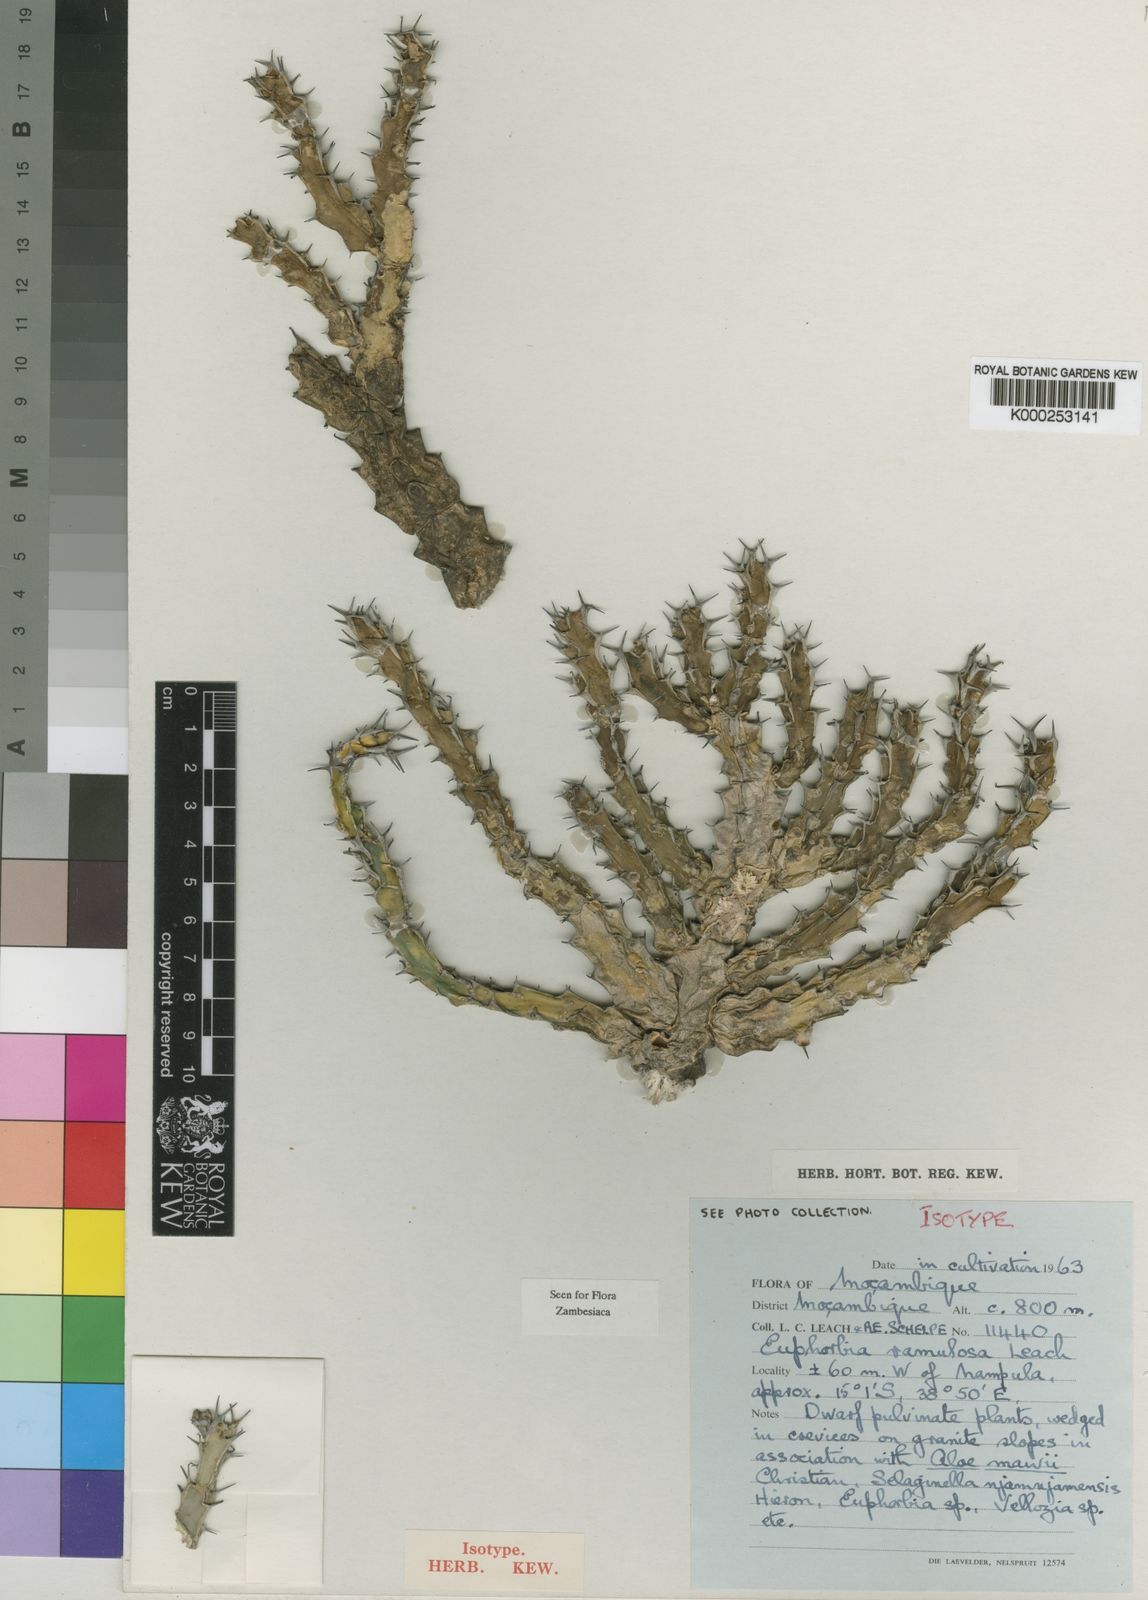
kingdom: Plantae
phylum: Tracheophyta
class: Magnoliopsida
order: Malpighiales
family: Euphorbiaceae
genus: Euphorbia
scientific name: Euphorbia ramulosa
